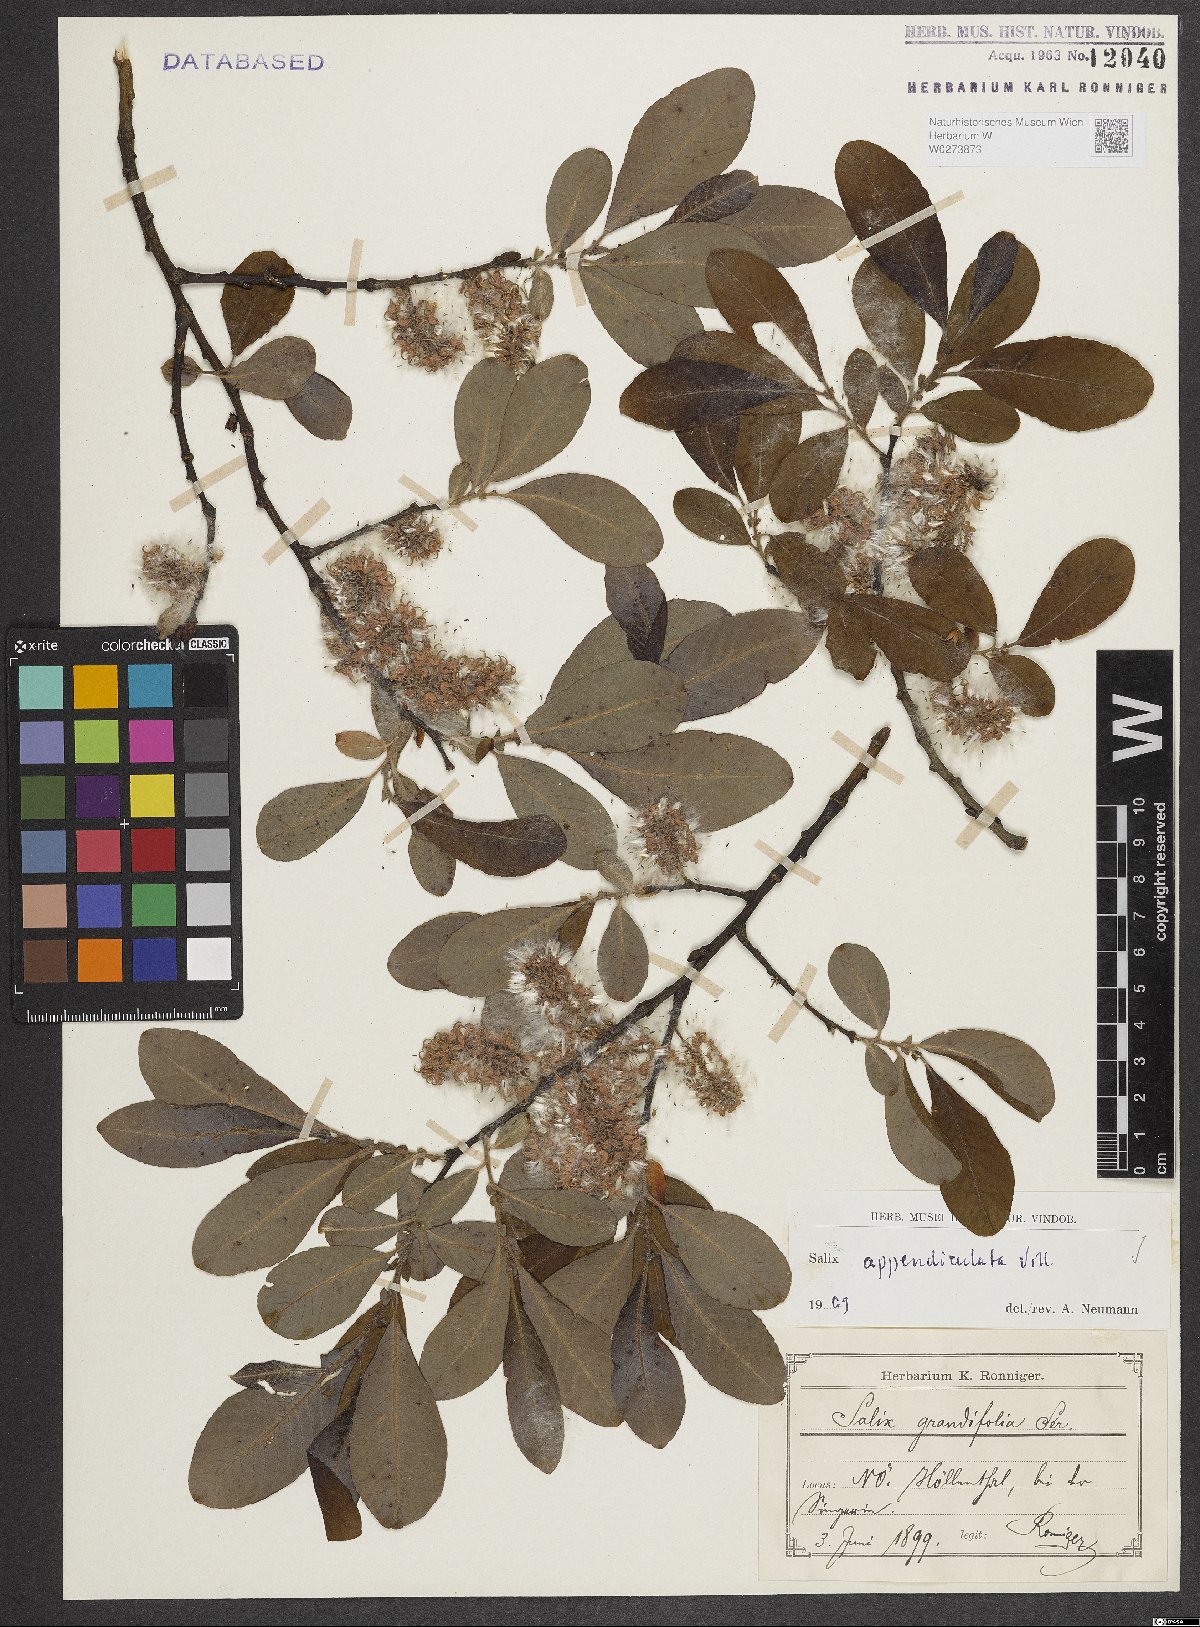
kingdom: Plantae
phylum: Tracheophyta
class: Magnoliopsida
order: Malpighiales
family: Salicaceae
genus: Salix
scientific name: Salix appendiculata
